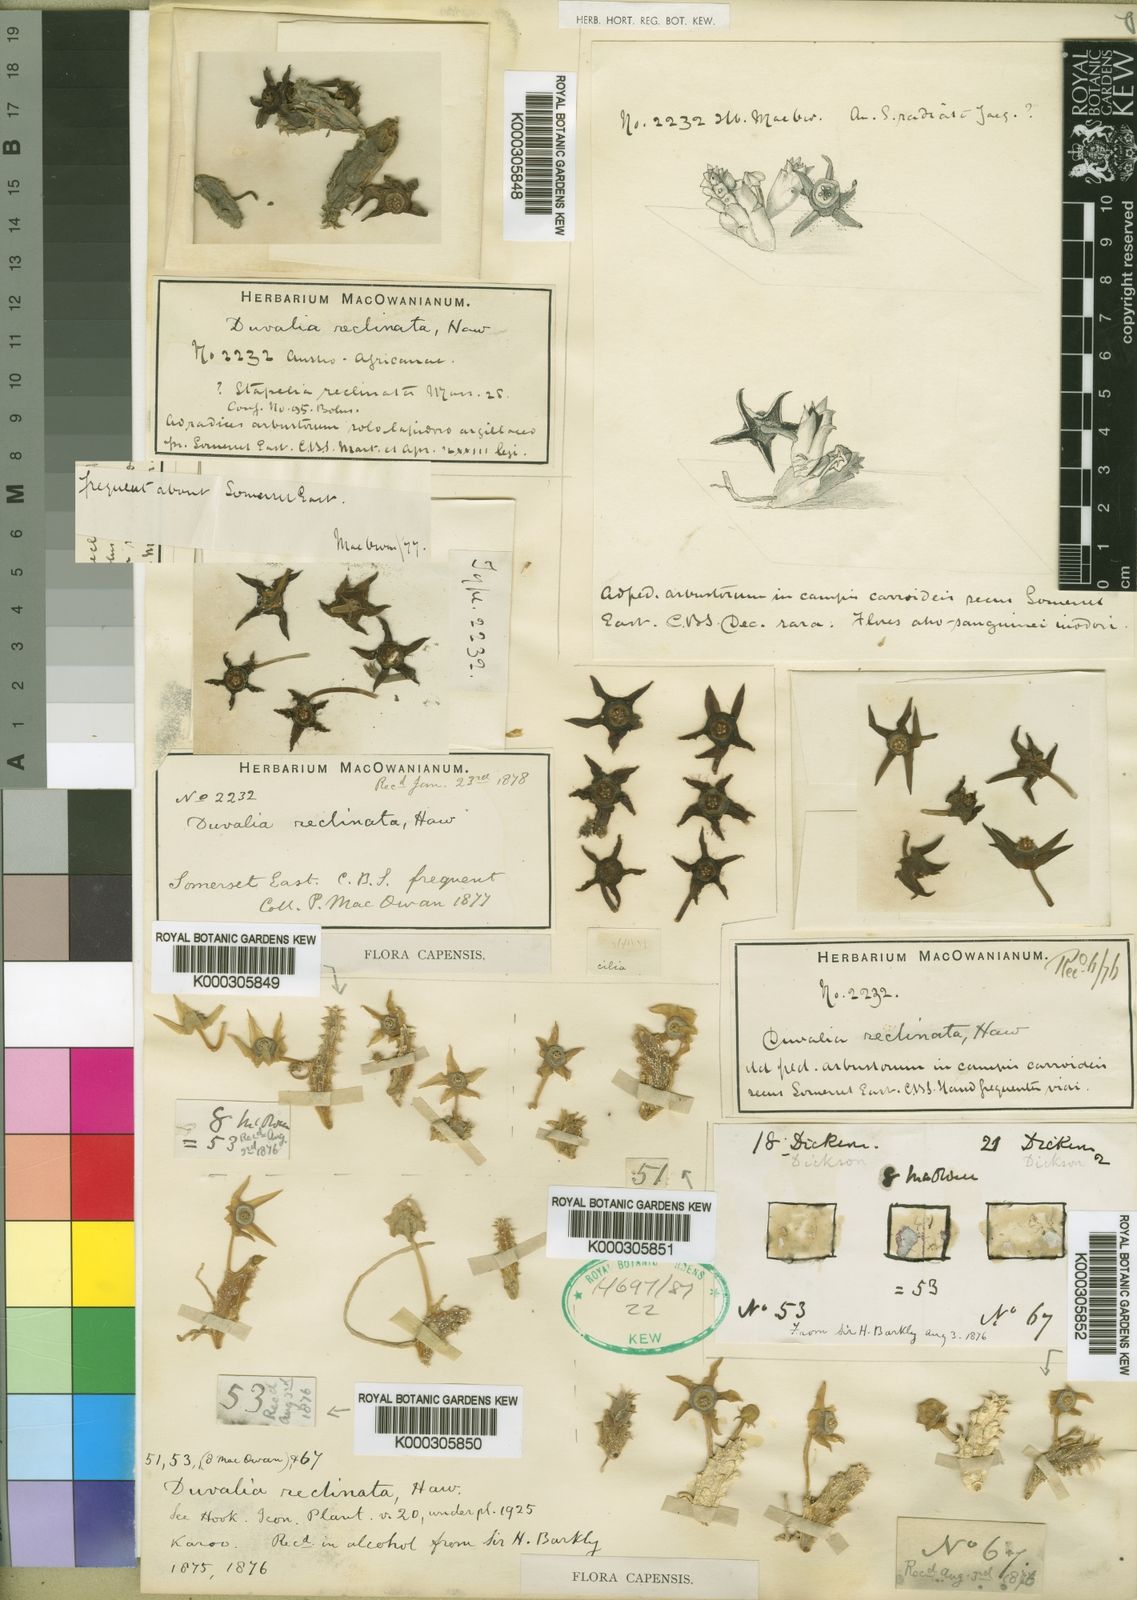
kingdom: Plantae
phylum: Tracheophyta
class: Magnoliopsida
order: Gentianales
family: Apocynaceae
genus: Ceropegia
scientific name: Ceropegia caespitosa
